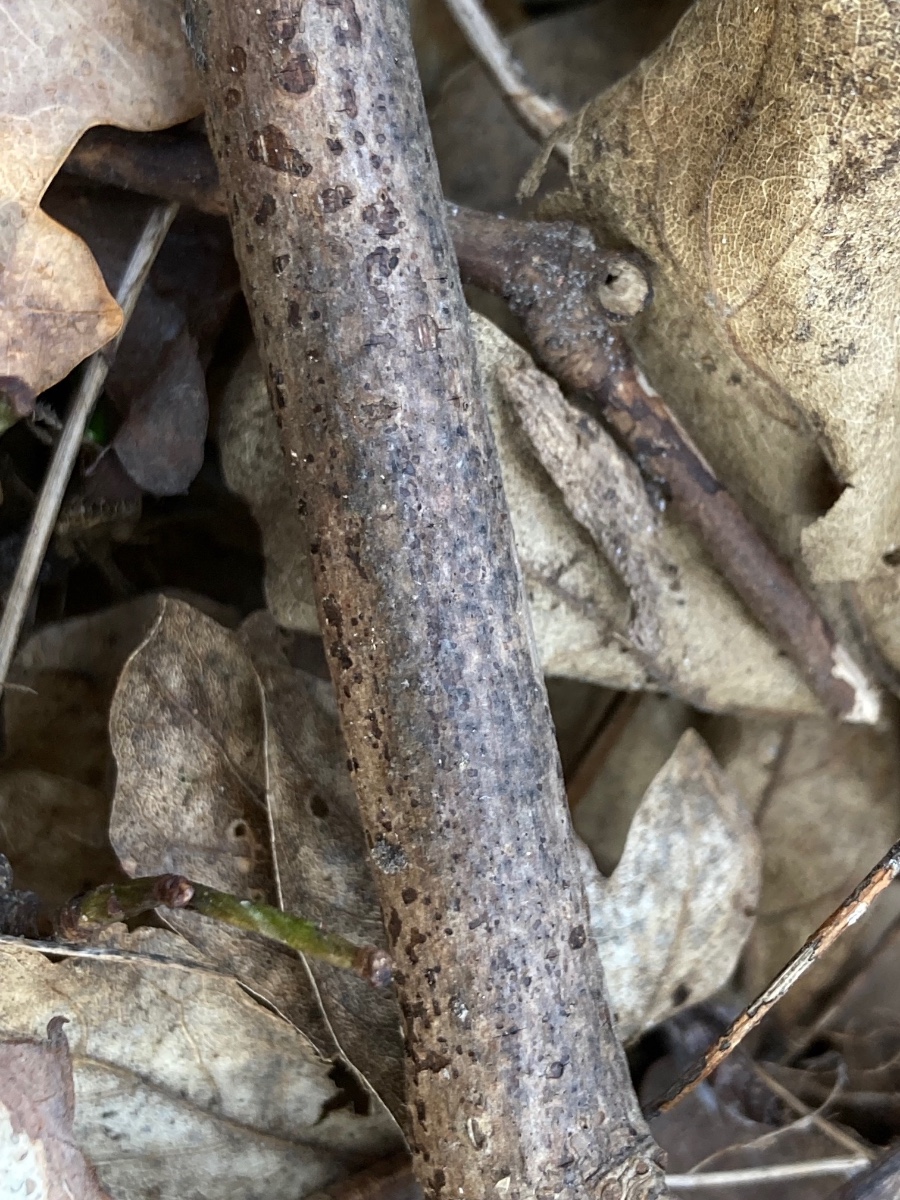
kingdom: Fungi
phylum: Ascomycota
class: Sordariomycetes
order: Amphisphaeriales
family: Amphisphaeriaceae
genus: Amphisphaeria
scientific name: Amphisphaeria multipunctata
